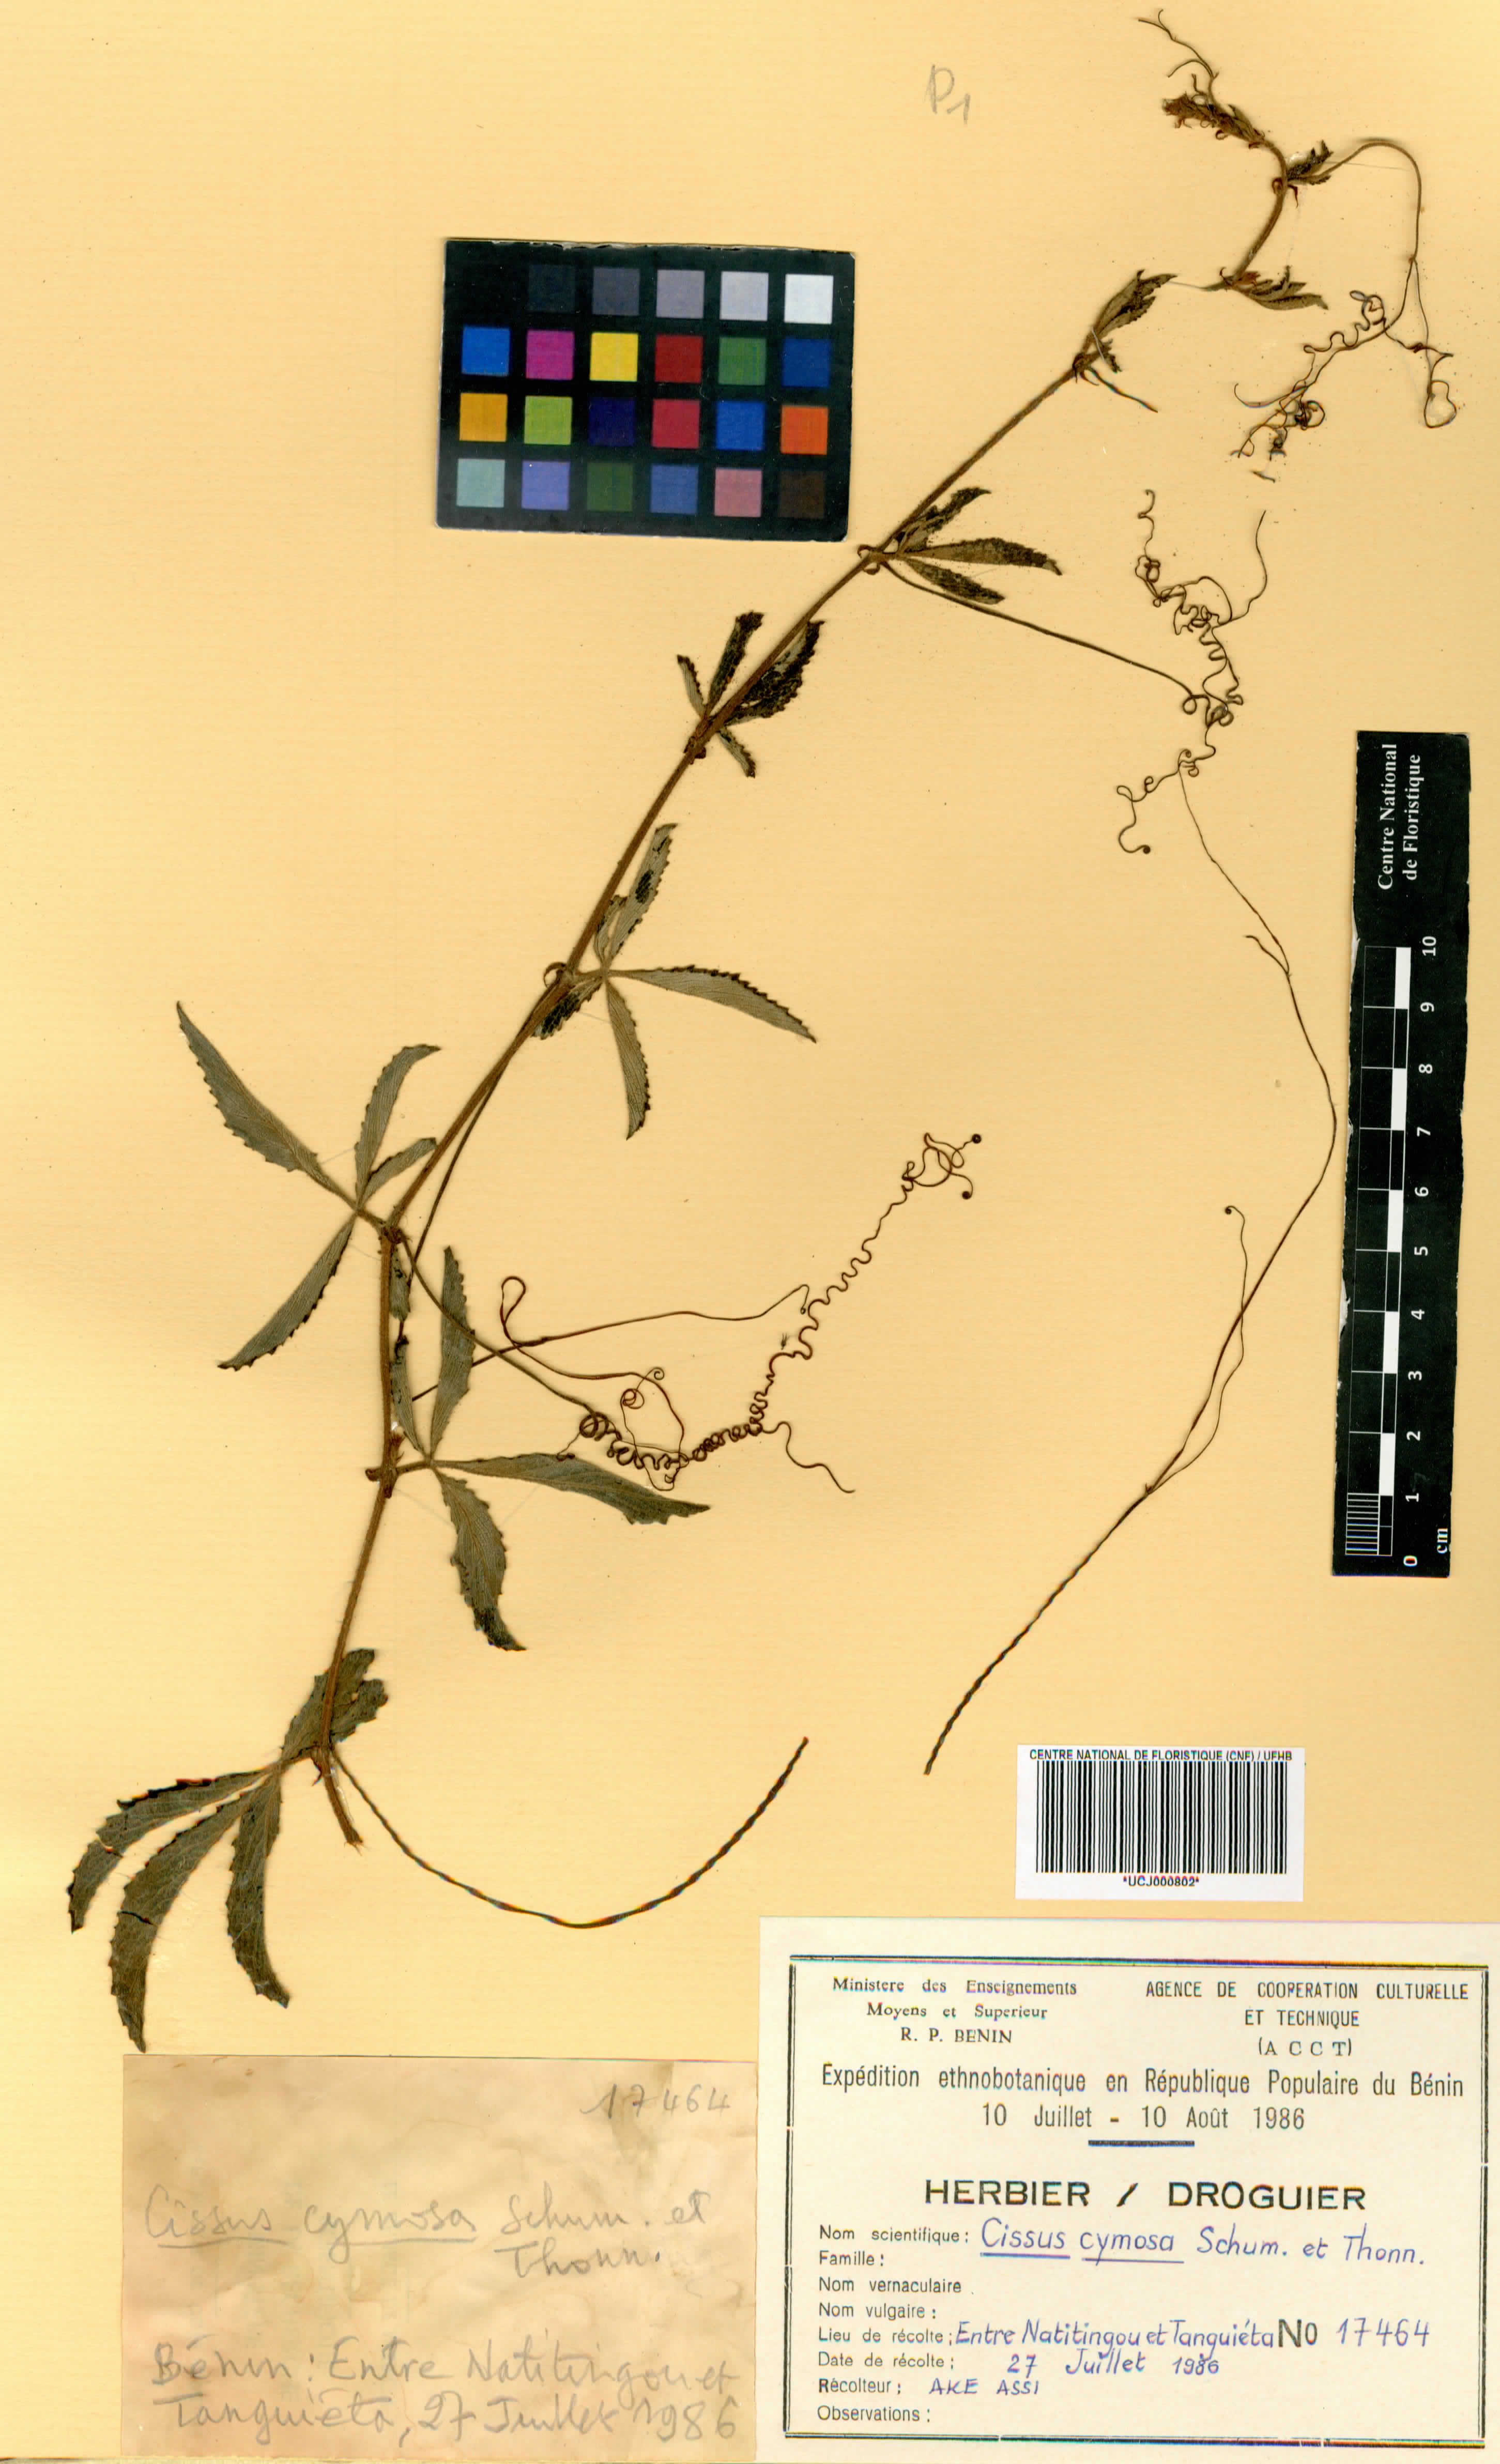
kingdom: Plantae
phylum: Tracheophyta
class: Magnoliopsida
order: Vitales
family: Vitaceae
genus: Cyphostemma
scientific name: Cyphostemma cymosum
